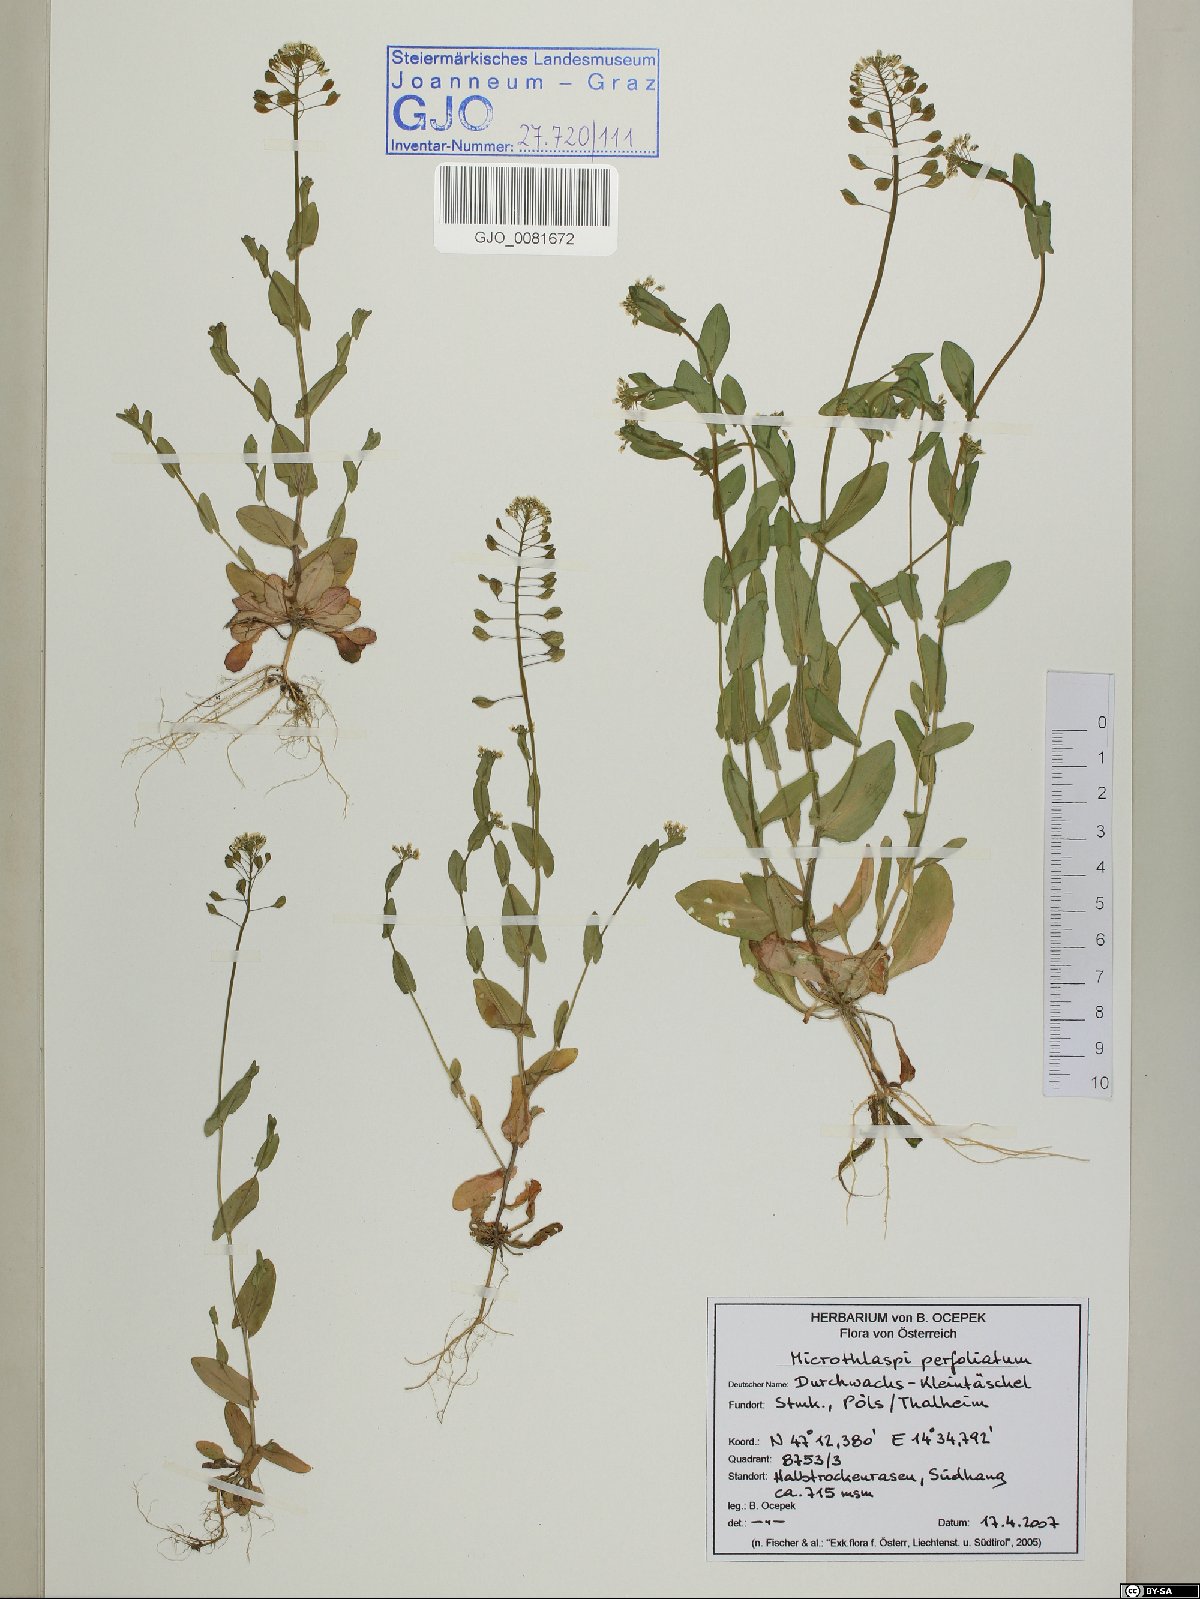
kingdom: Plantae
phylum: Tracheophyta
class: Magnoliopsida
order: Brassicales
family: Brassicaceae
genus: Noccaea
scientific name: Noccaea perfoliata
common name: Perfoliate pennycress
